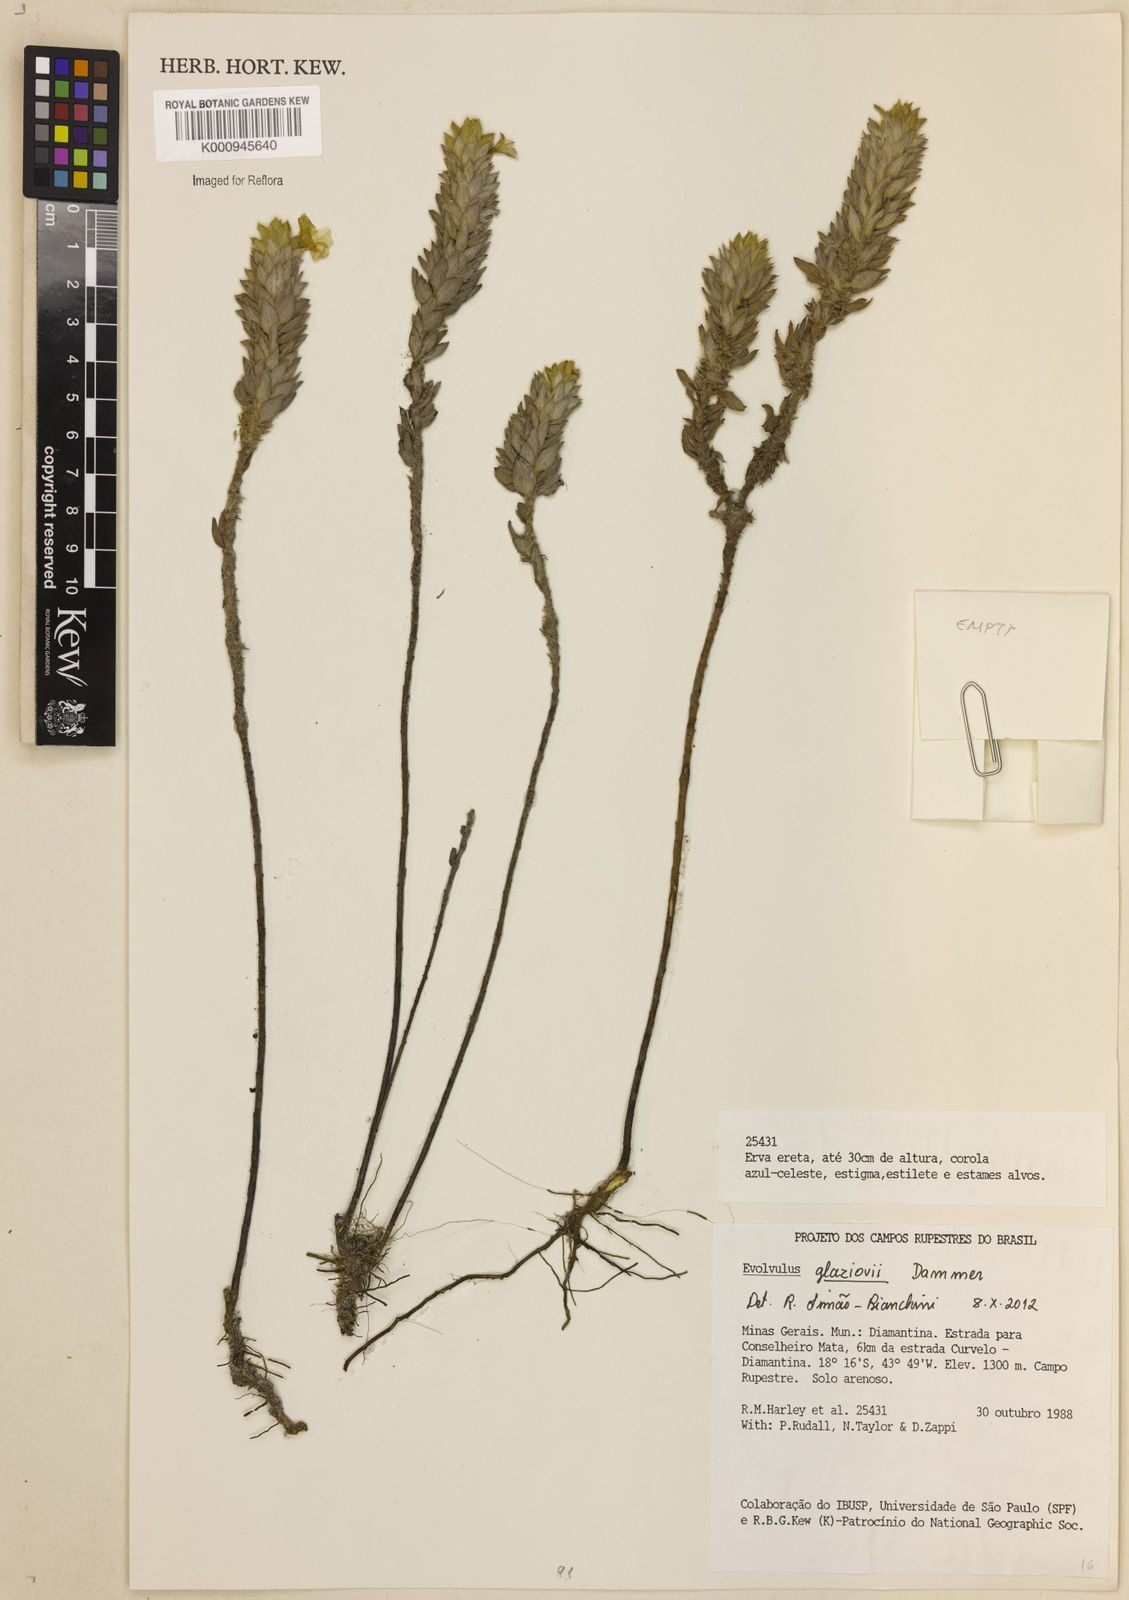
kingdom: Plantae
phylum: Tracheophyta
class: Magnoliopsida
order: Solanales
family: Convolvulaceae
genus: Evolvulus
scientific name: Evolvulus glaziovii
